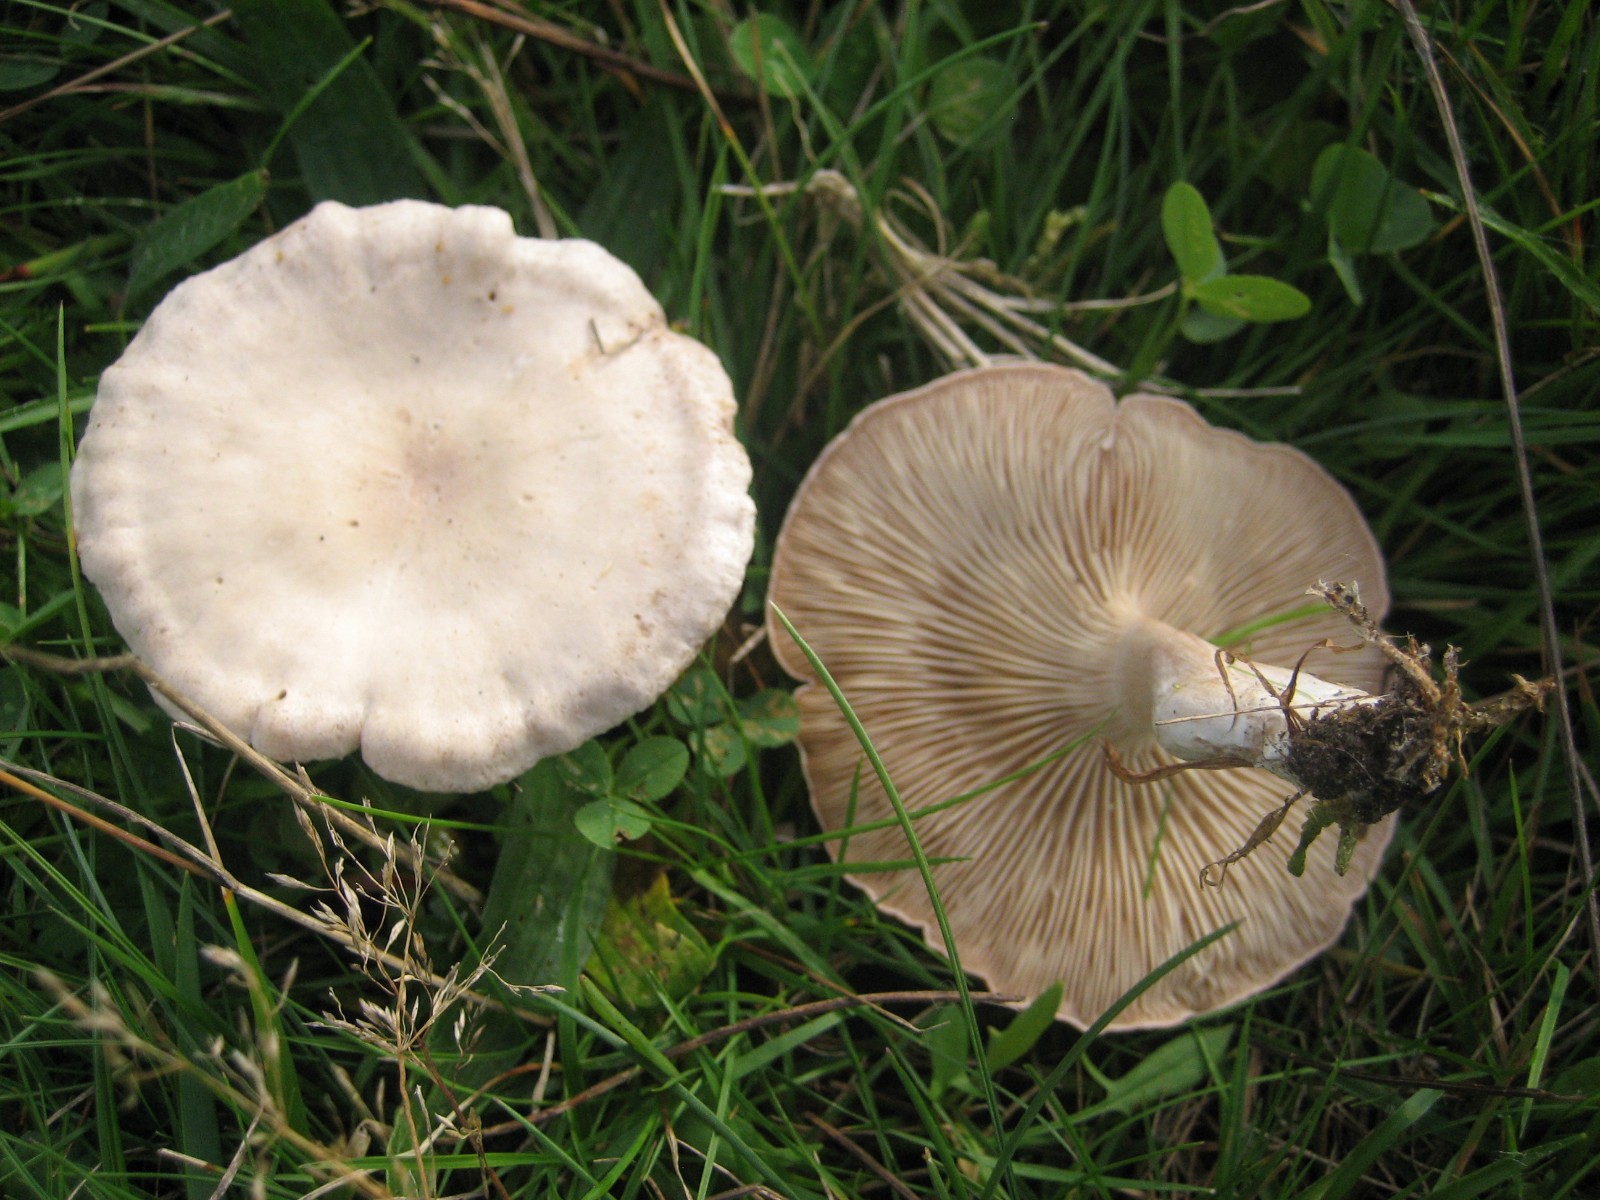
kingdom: Fungi
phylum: Basidiomycota
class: Agaricomycetes
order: Agaricales
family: Tricholomataceae
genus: Clitocybe
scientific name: Clitocybe rivulosa
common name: eng-tragthat
